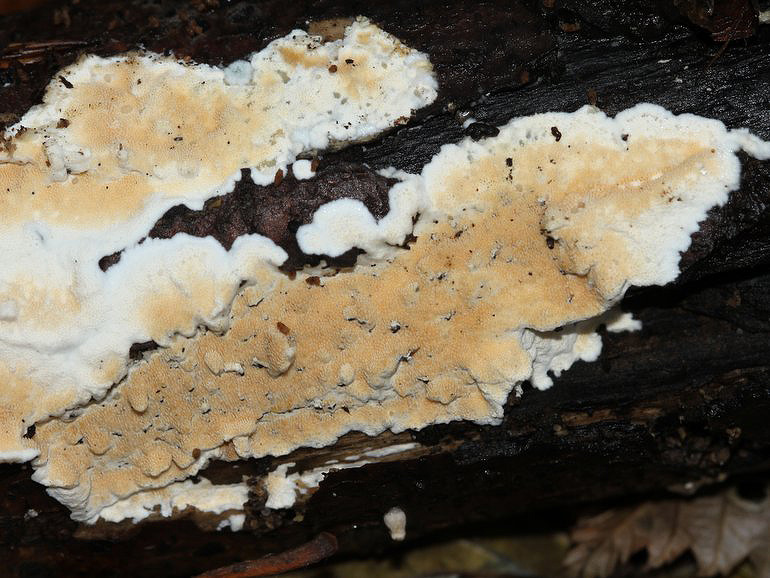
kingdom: Fungi
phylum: Basidiomycota
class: Agaricomycetes
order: Polyporales
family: Steccherinaceae
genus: Steccherinum
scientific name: Steccherinum ochraceum
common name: almindelig skønpig
